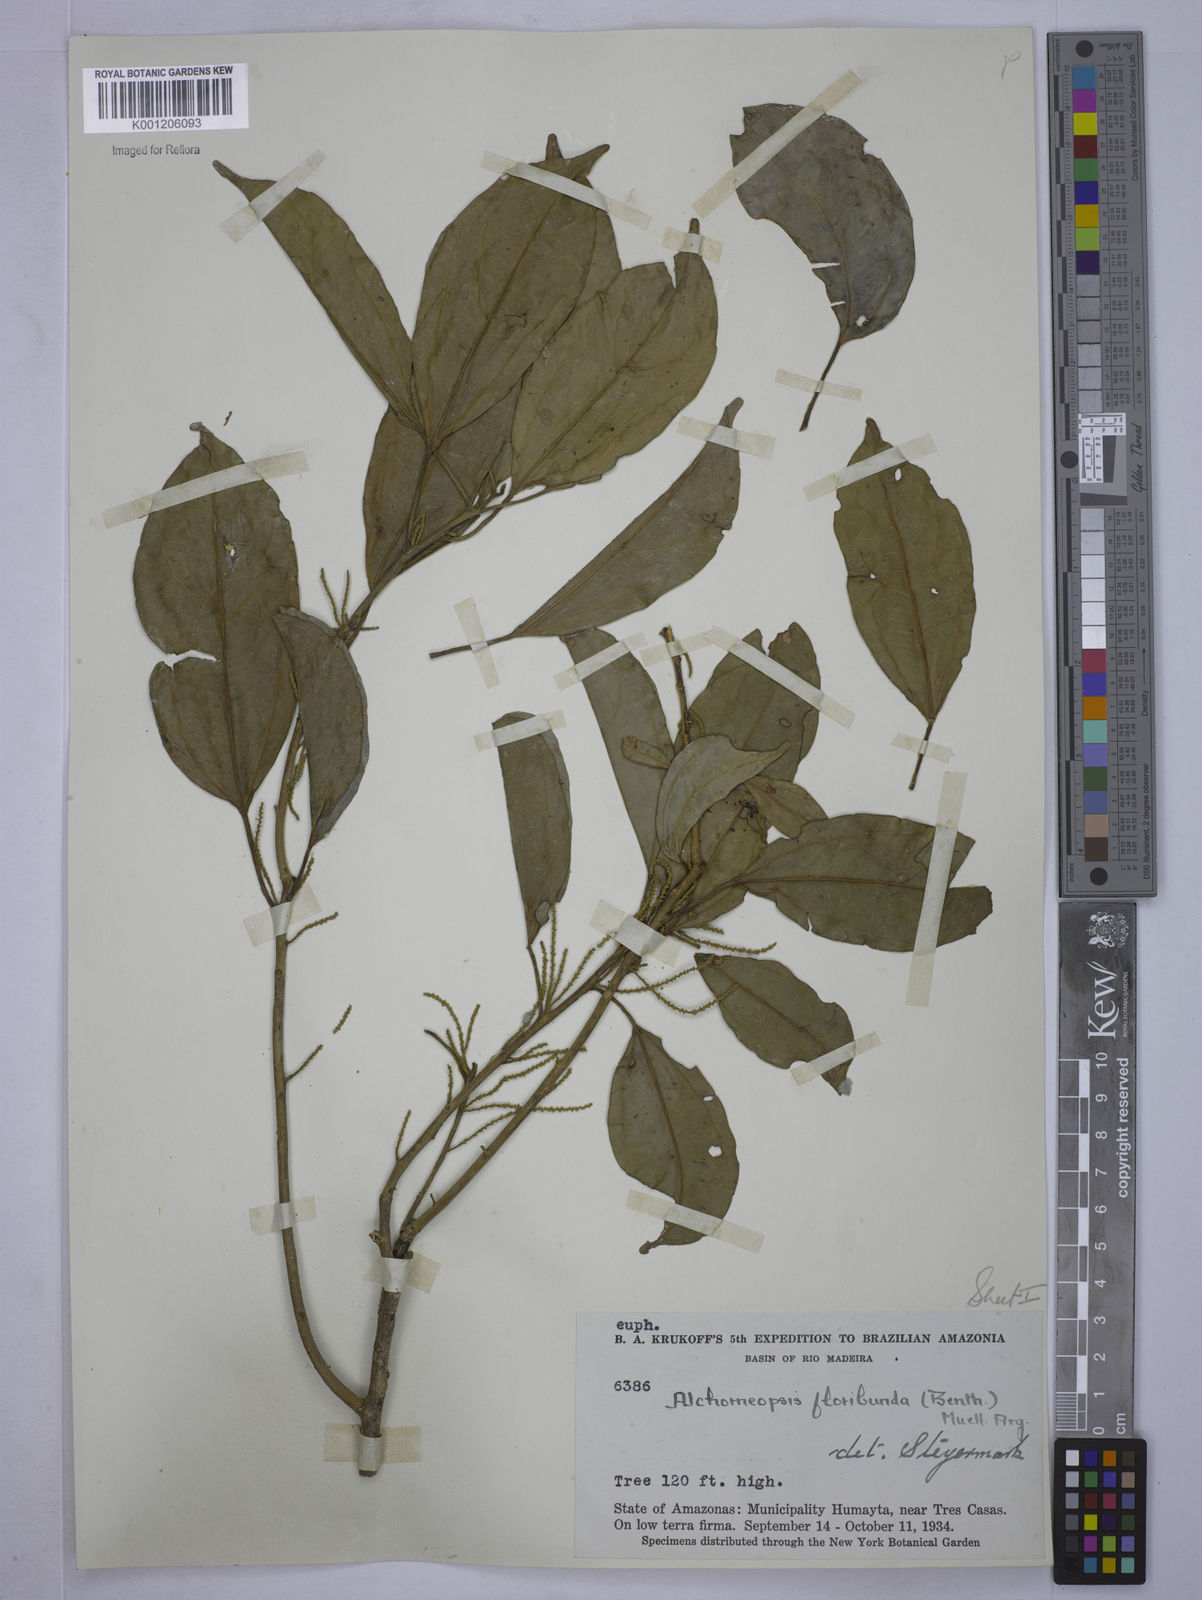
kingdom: Plantae
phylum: Tracheophyta
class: Magnoliopsida
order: Malpighiales
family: Euphorbiaceae
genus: Alchorneopsis
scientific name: Alchorneopsis
